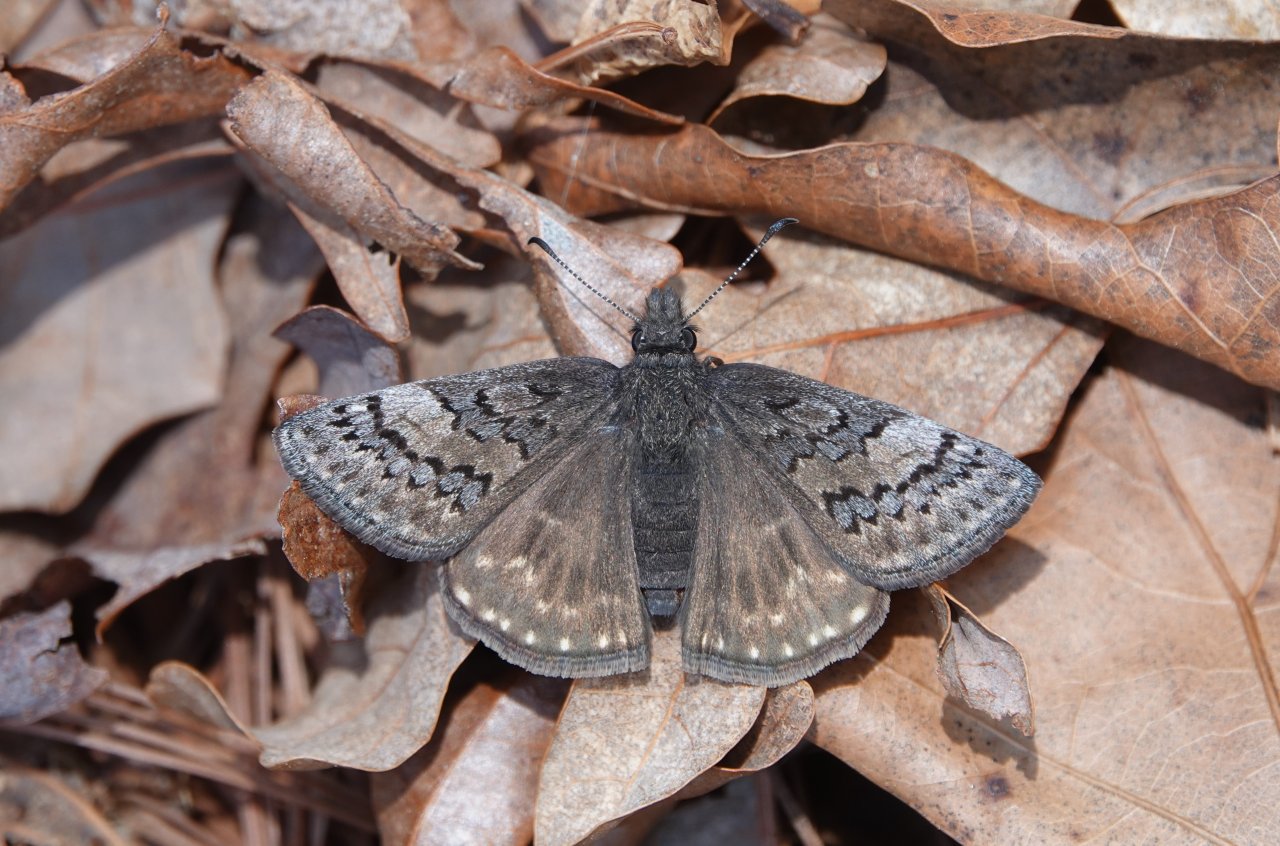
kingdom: Animalia
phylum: Arthropoda
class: Insecta
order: Lepidoptera
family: Hesperiidae
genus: Erynnis
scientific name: Erynnis brizo
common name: Sleepy Duskywing
